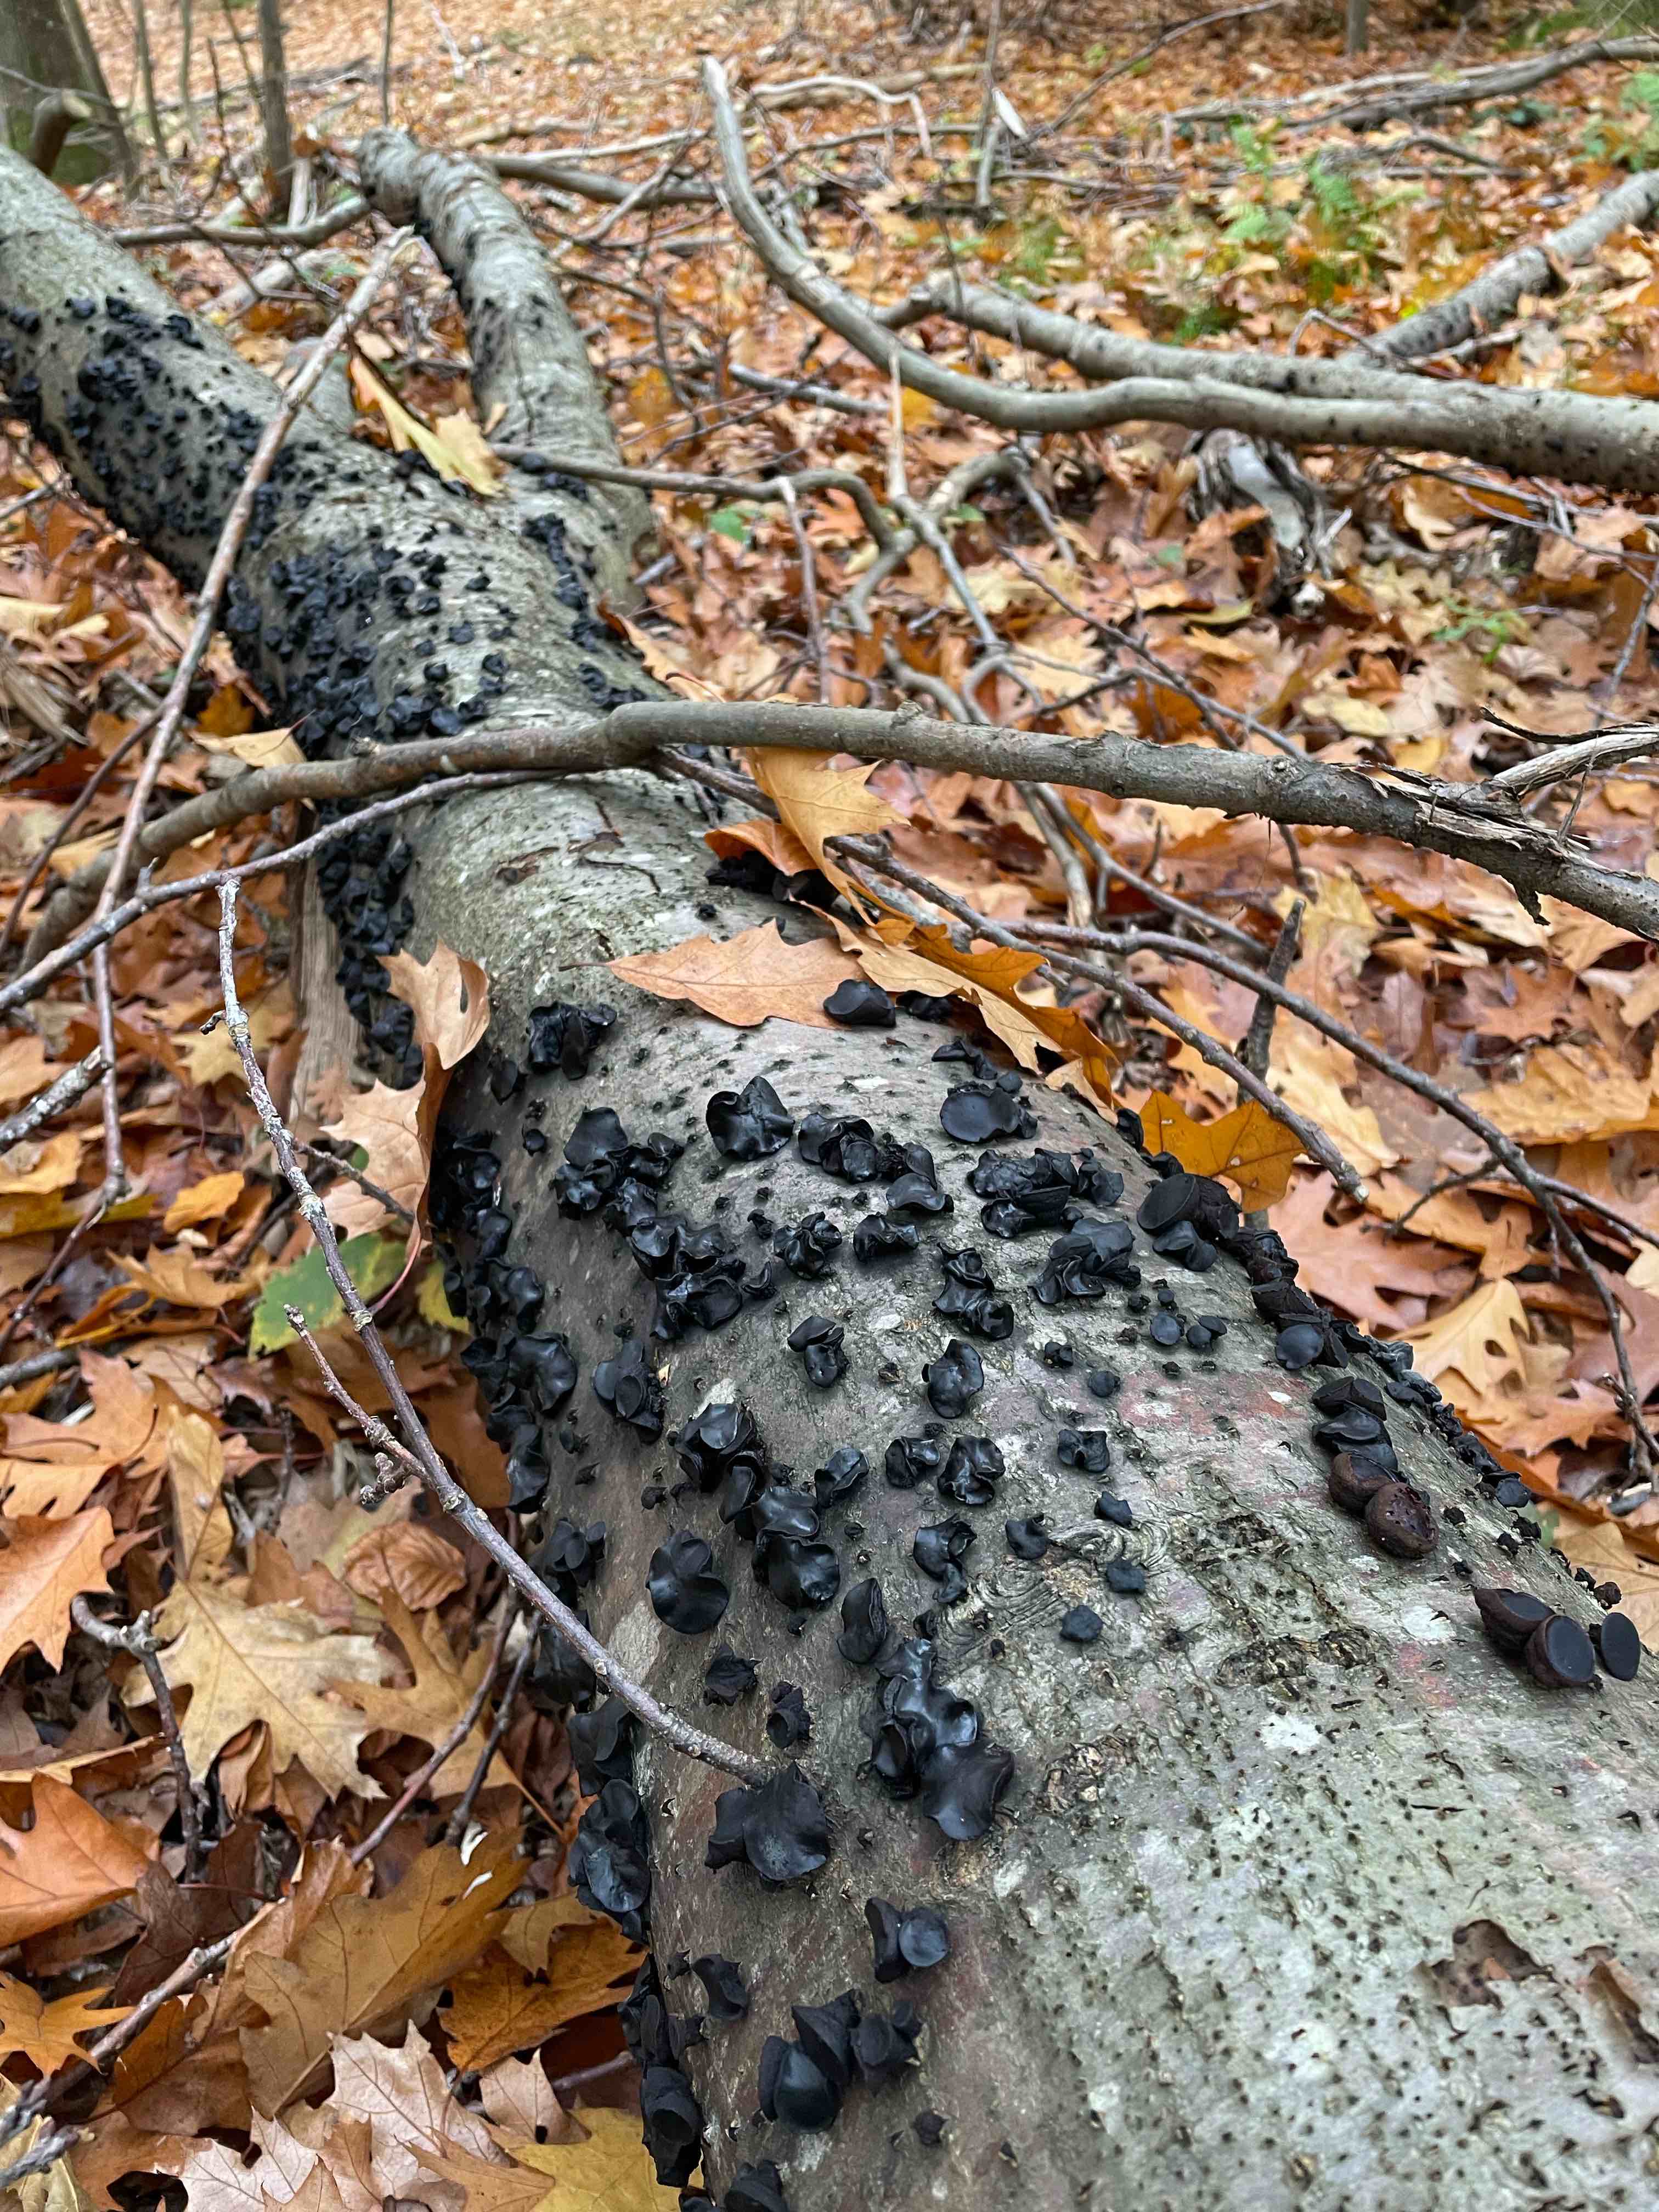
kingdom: Fungi
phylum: Ascomycota
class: Leotiomycetes
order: Phacidiales
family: Phacidiaceae
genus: Bulgaria
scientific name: Bulgaria inquinans
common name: afsmittende topsvamp
